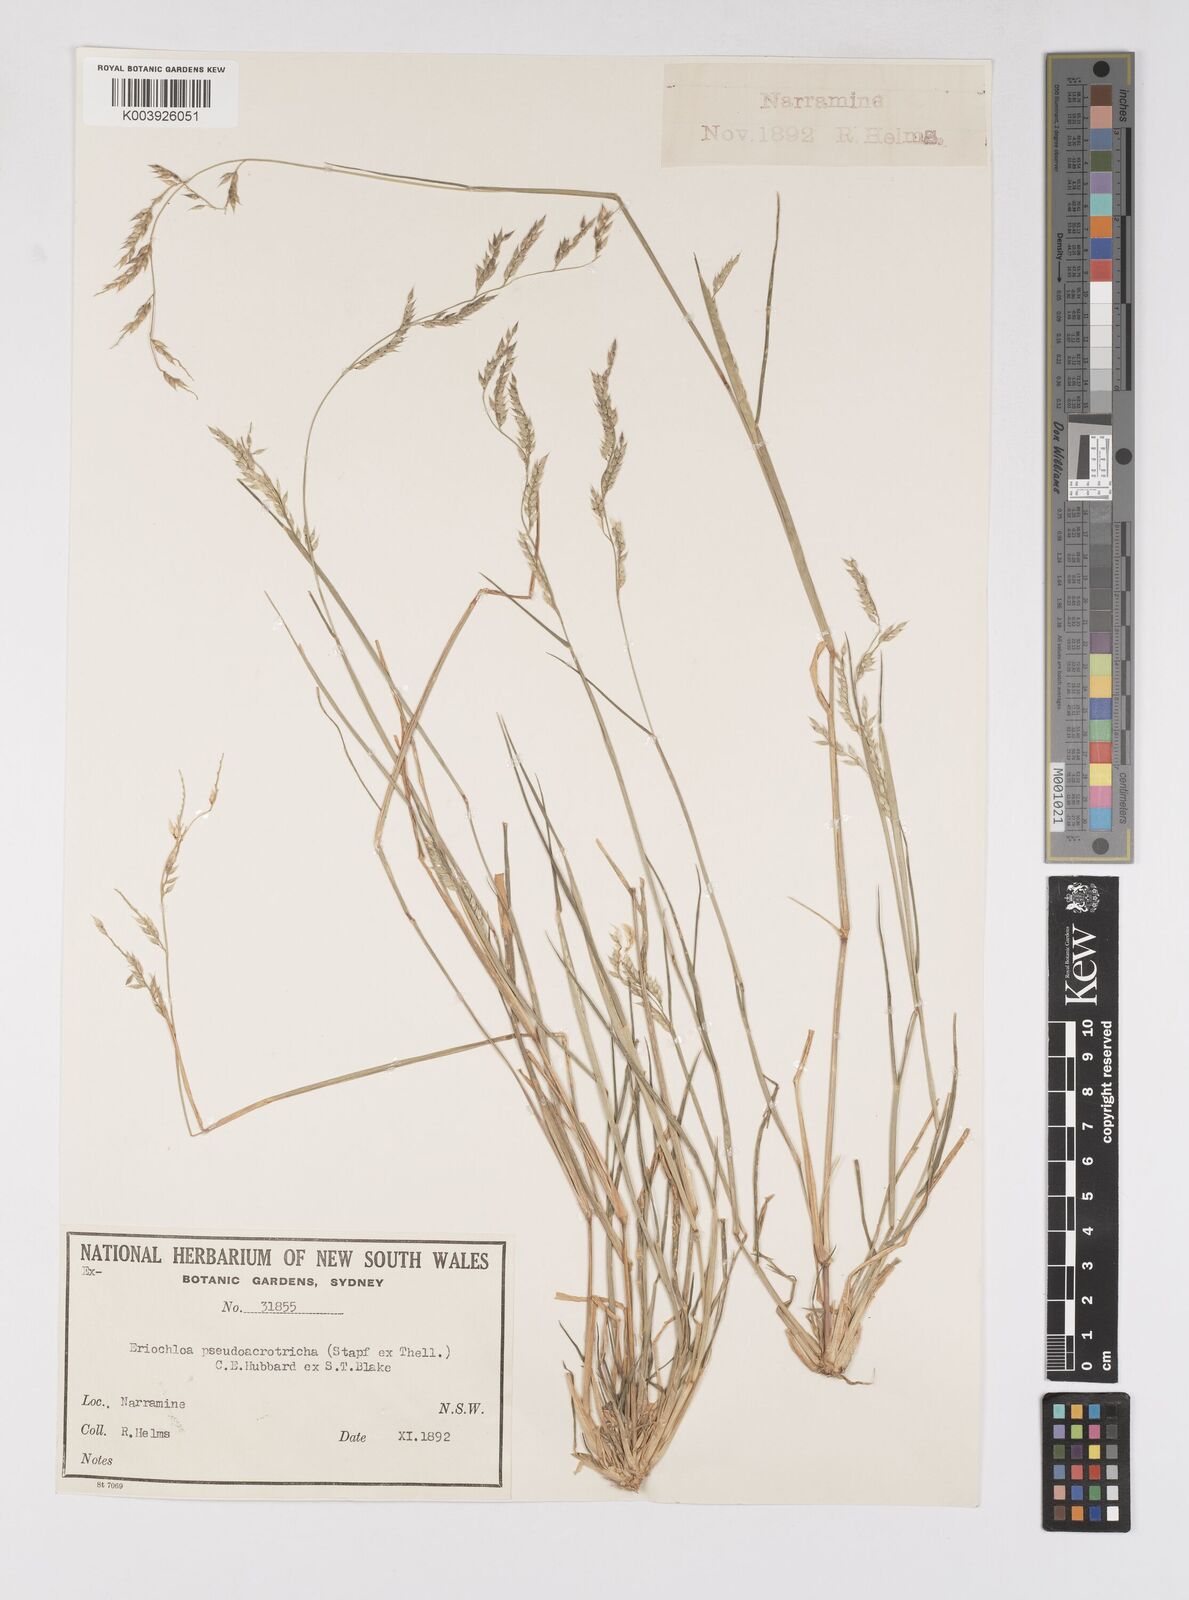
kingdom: Plantae
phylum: Tracheophyta
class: Liliopsida
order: Poales
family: Poaceae
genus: Eriochloa
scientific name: Eriochloa pseudoacrotricha
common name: Perennial cup-grass
